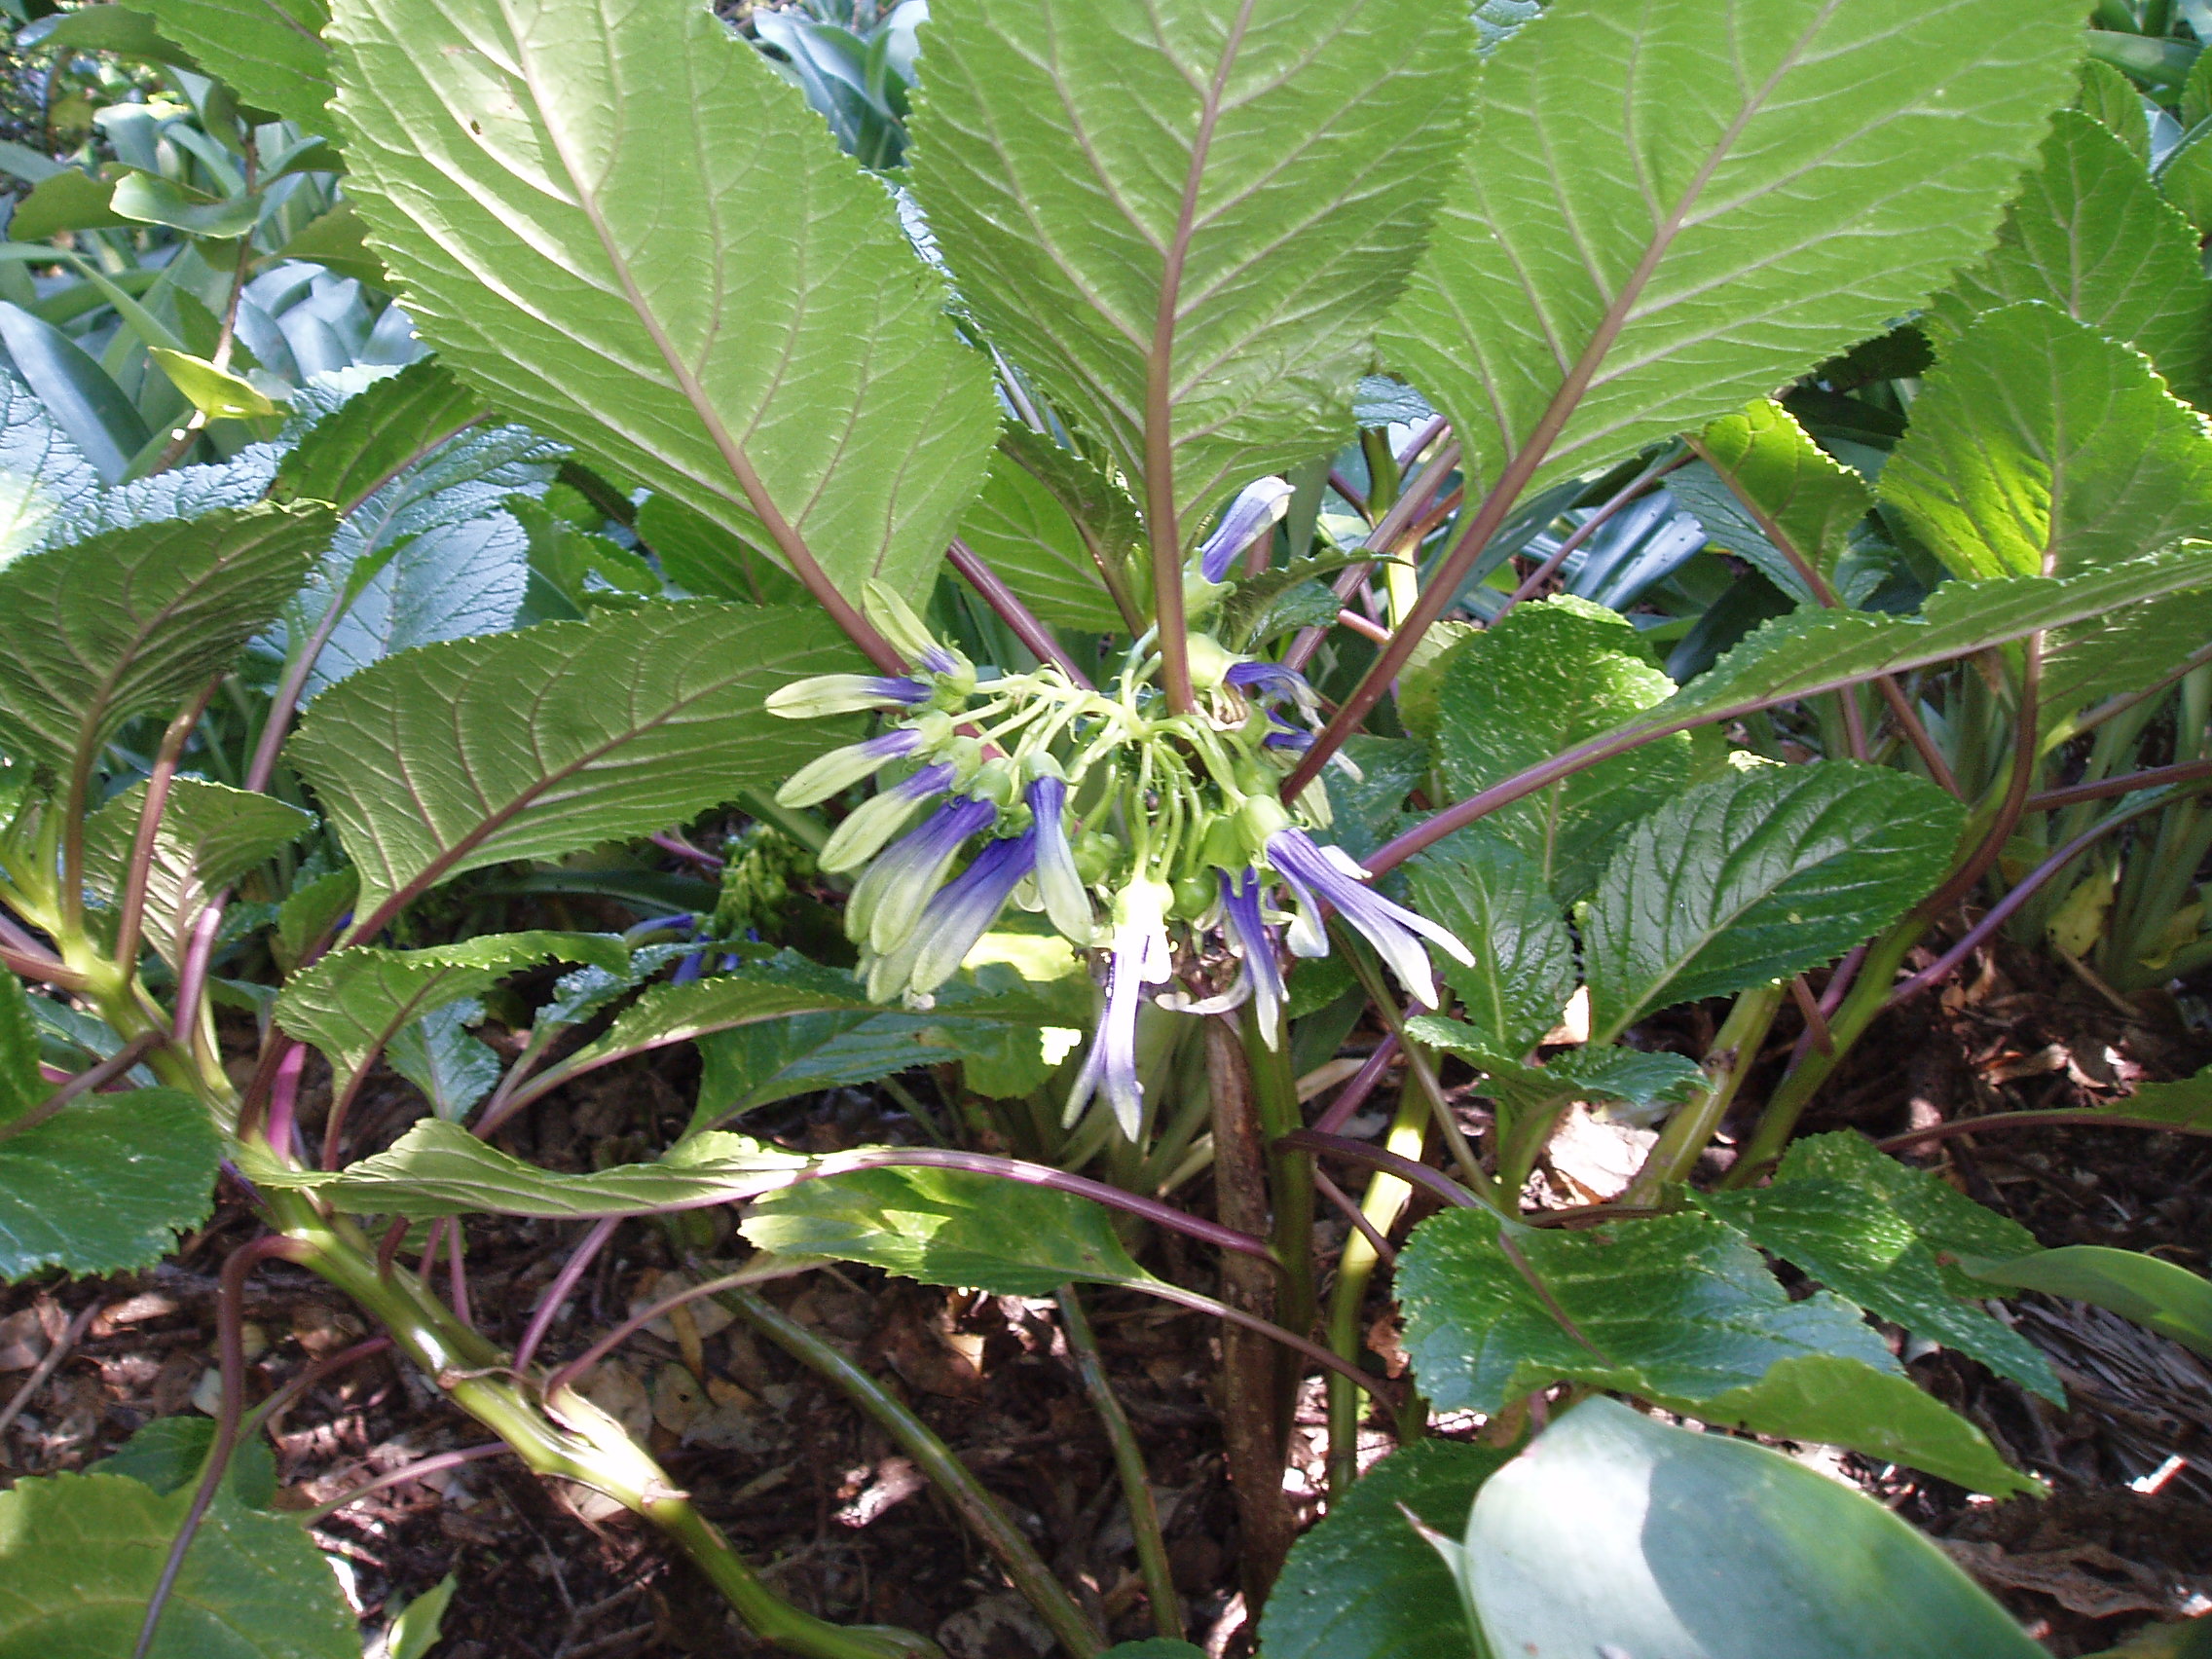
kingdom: Plantae
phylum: Tracheophyta
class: Magnoliopsida
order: Asterales
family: Campanulaceae
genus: Lobelia
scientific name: Lobelia physaloides
